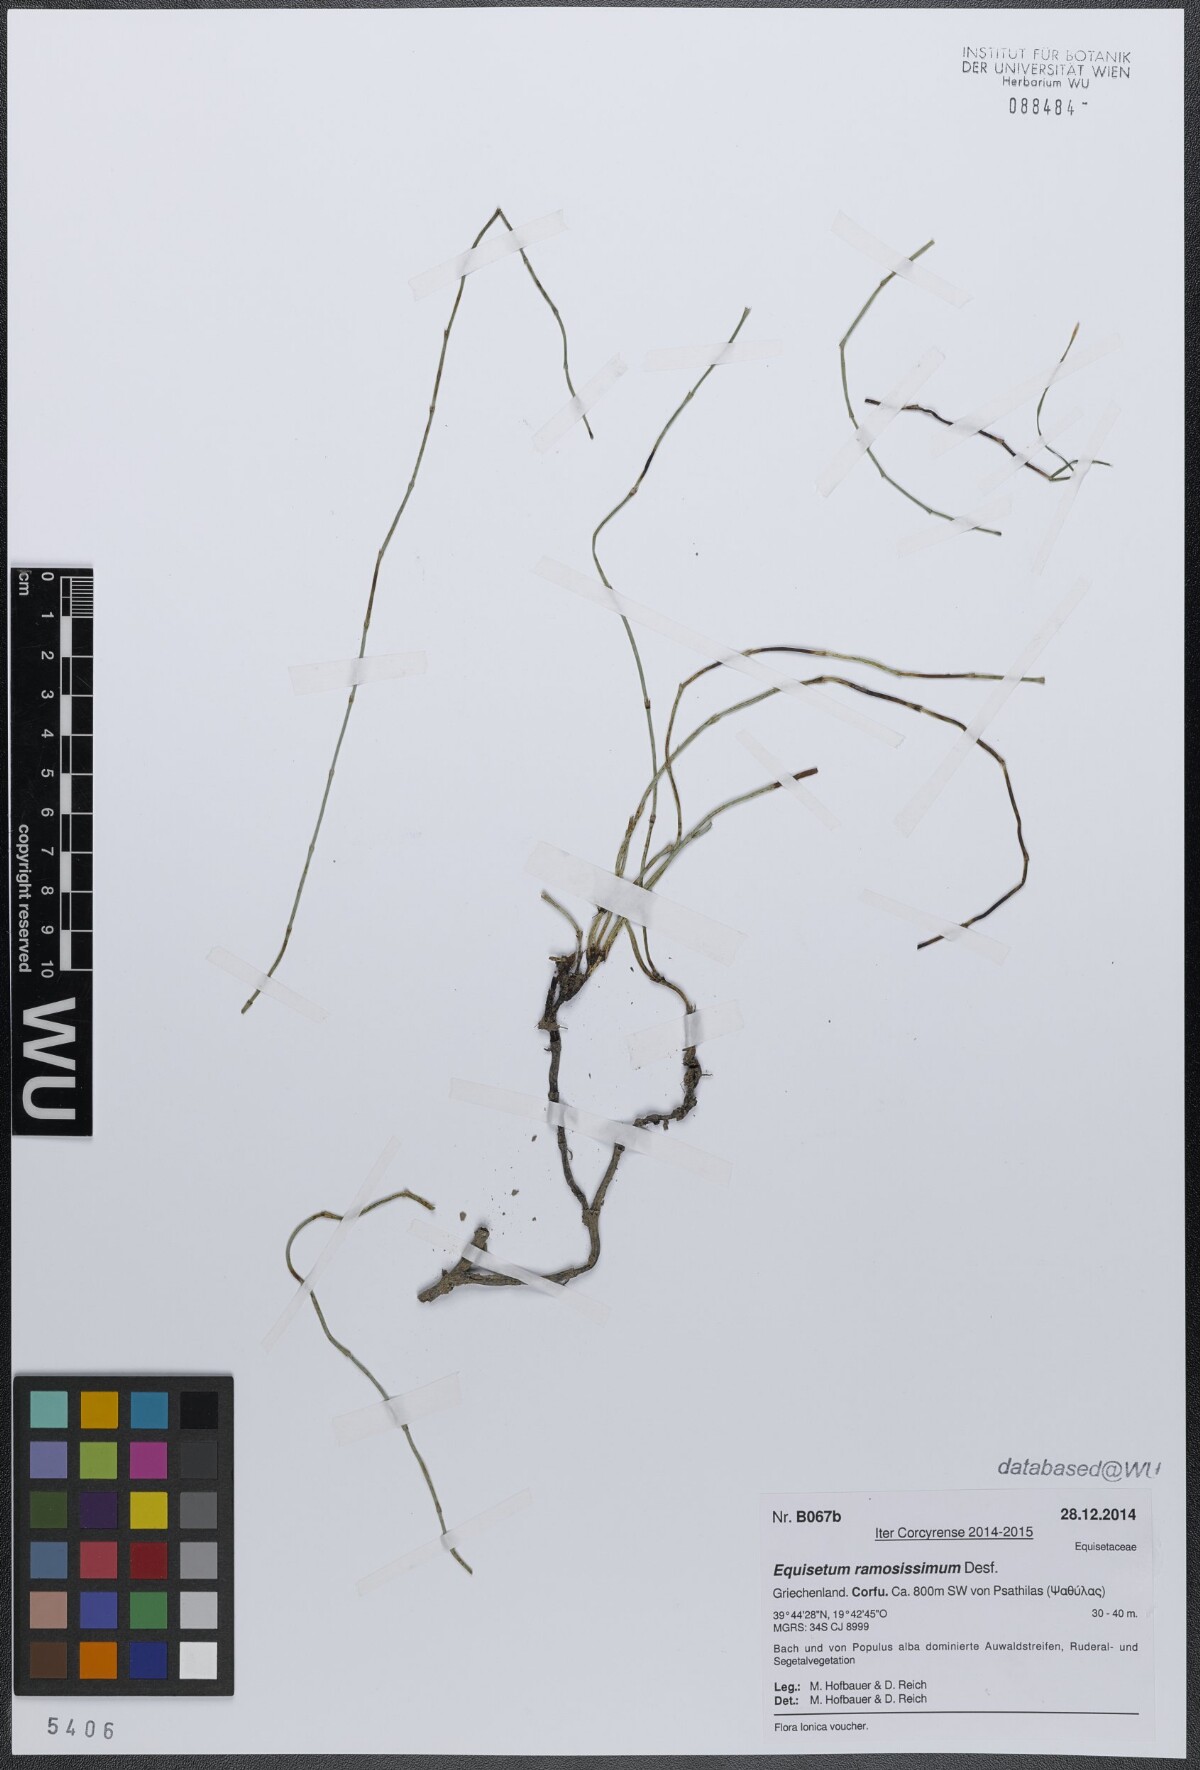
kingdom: Plantae
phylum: Tracheophyta
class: Polypodiopsida
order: Equisetales
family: Equisetaceae
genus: Equisetum
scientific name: Equisetum ramosissimum
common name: Branched horsetail
